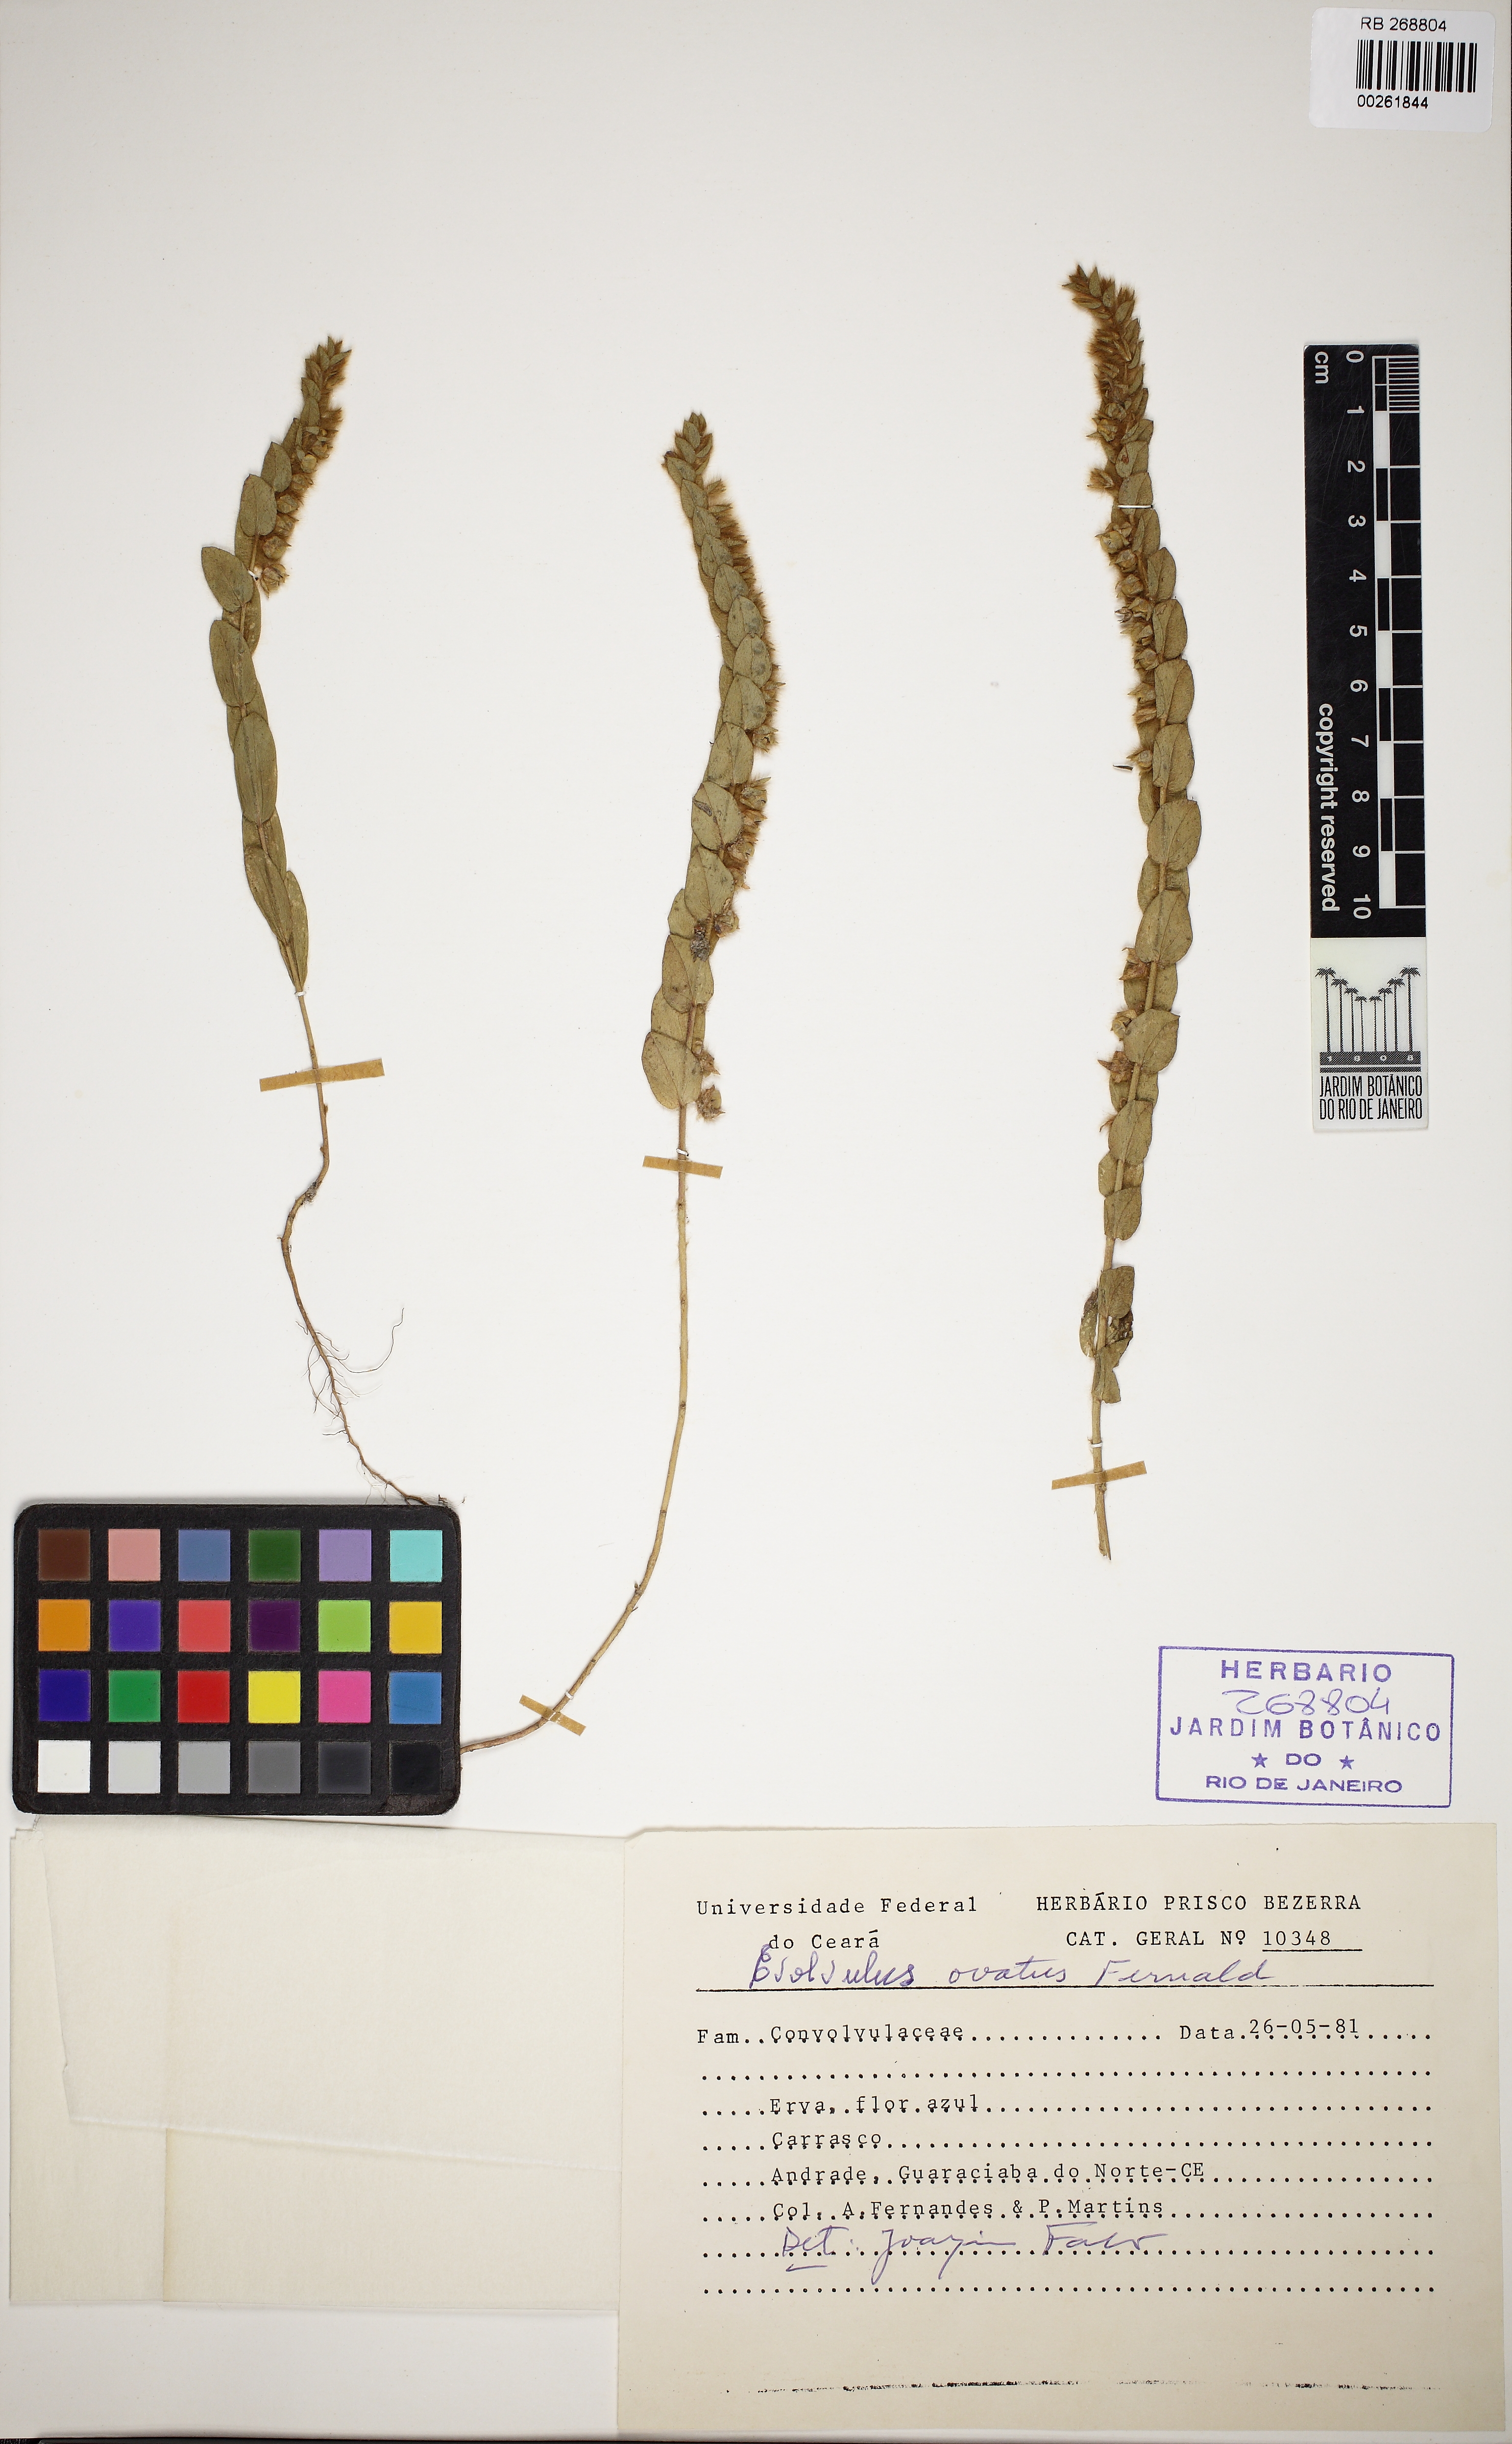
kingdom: Plantae
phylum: Tracheophyta
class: Magnoliopsida
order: Solanales
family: Convolvulaceae
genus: Evolvulus
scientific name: Evolvulus ovatus
